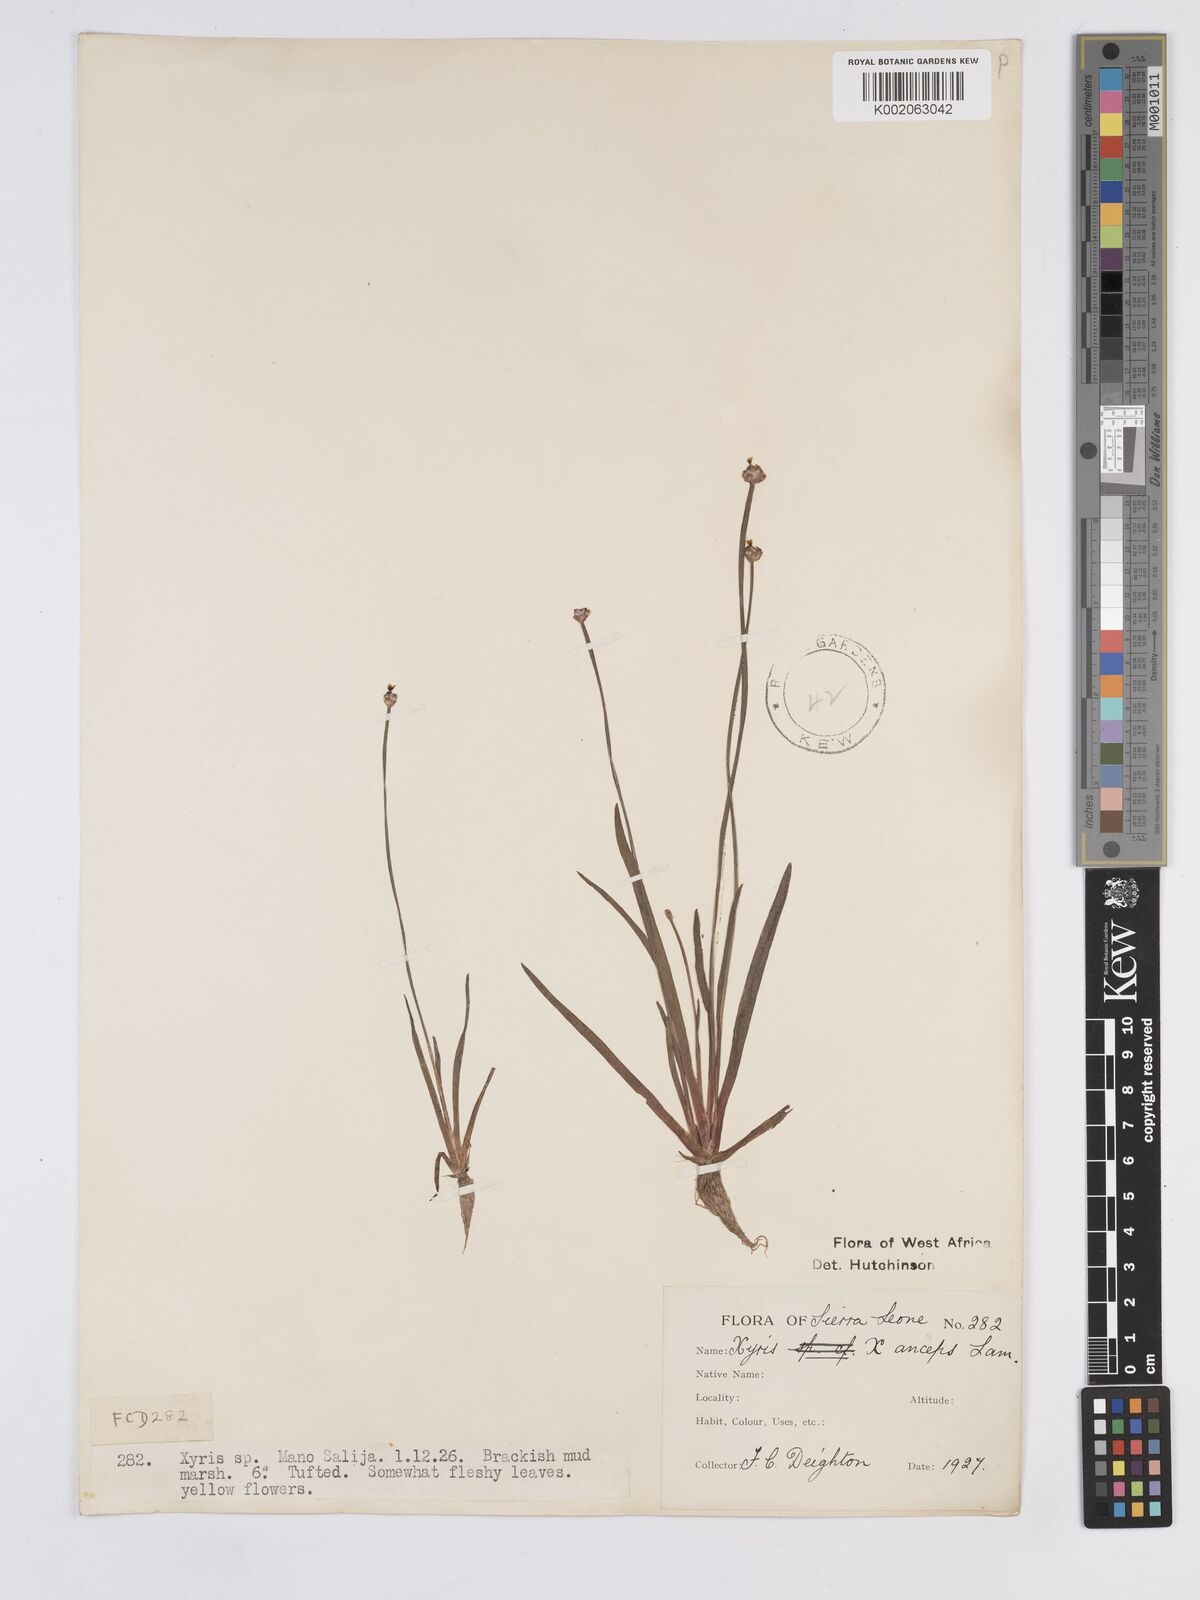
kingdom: Plantae
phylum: Tracheophyta
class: Liliopsida
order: Poales
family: Xyridaceae
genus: Xyris
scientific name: Xyris anceps
